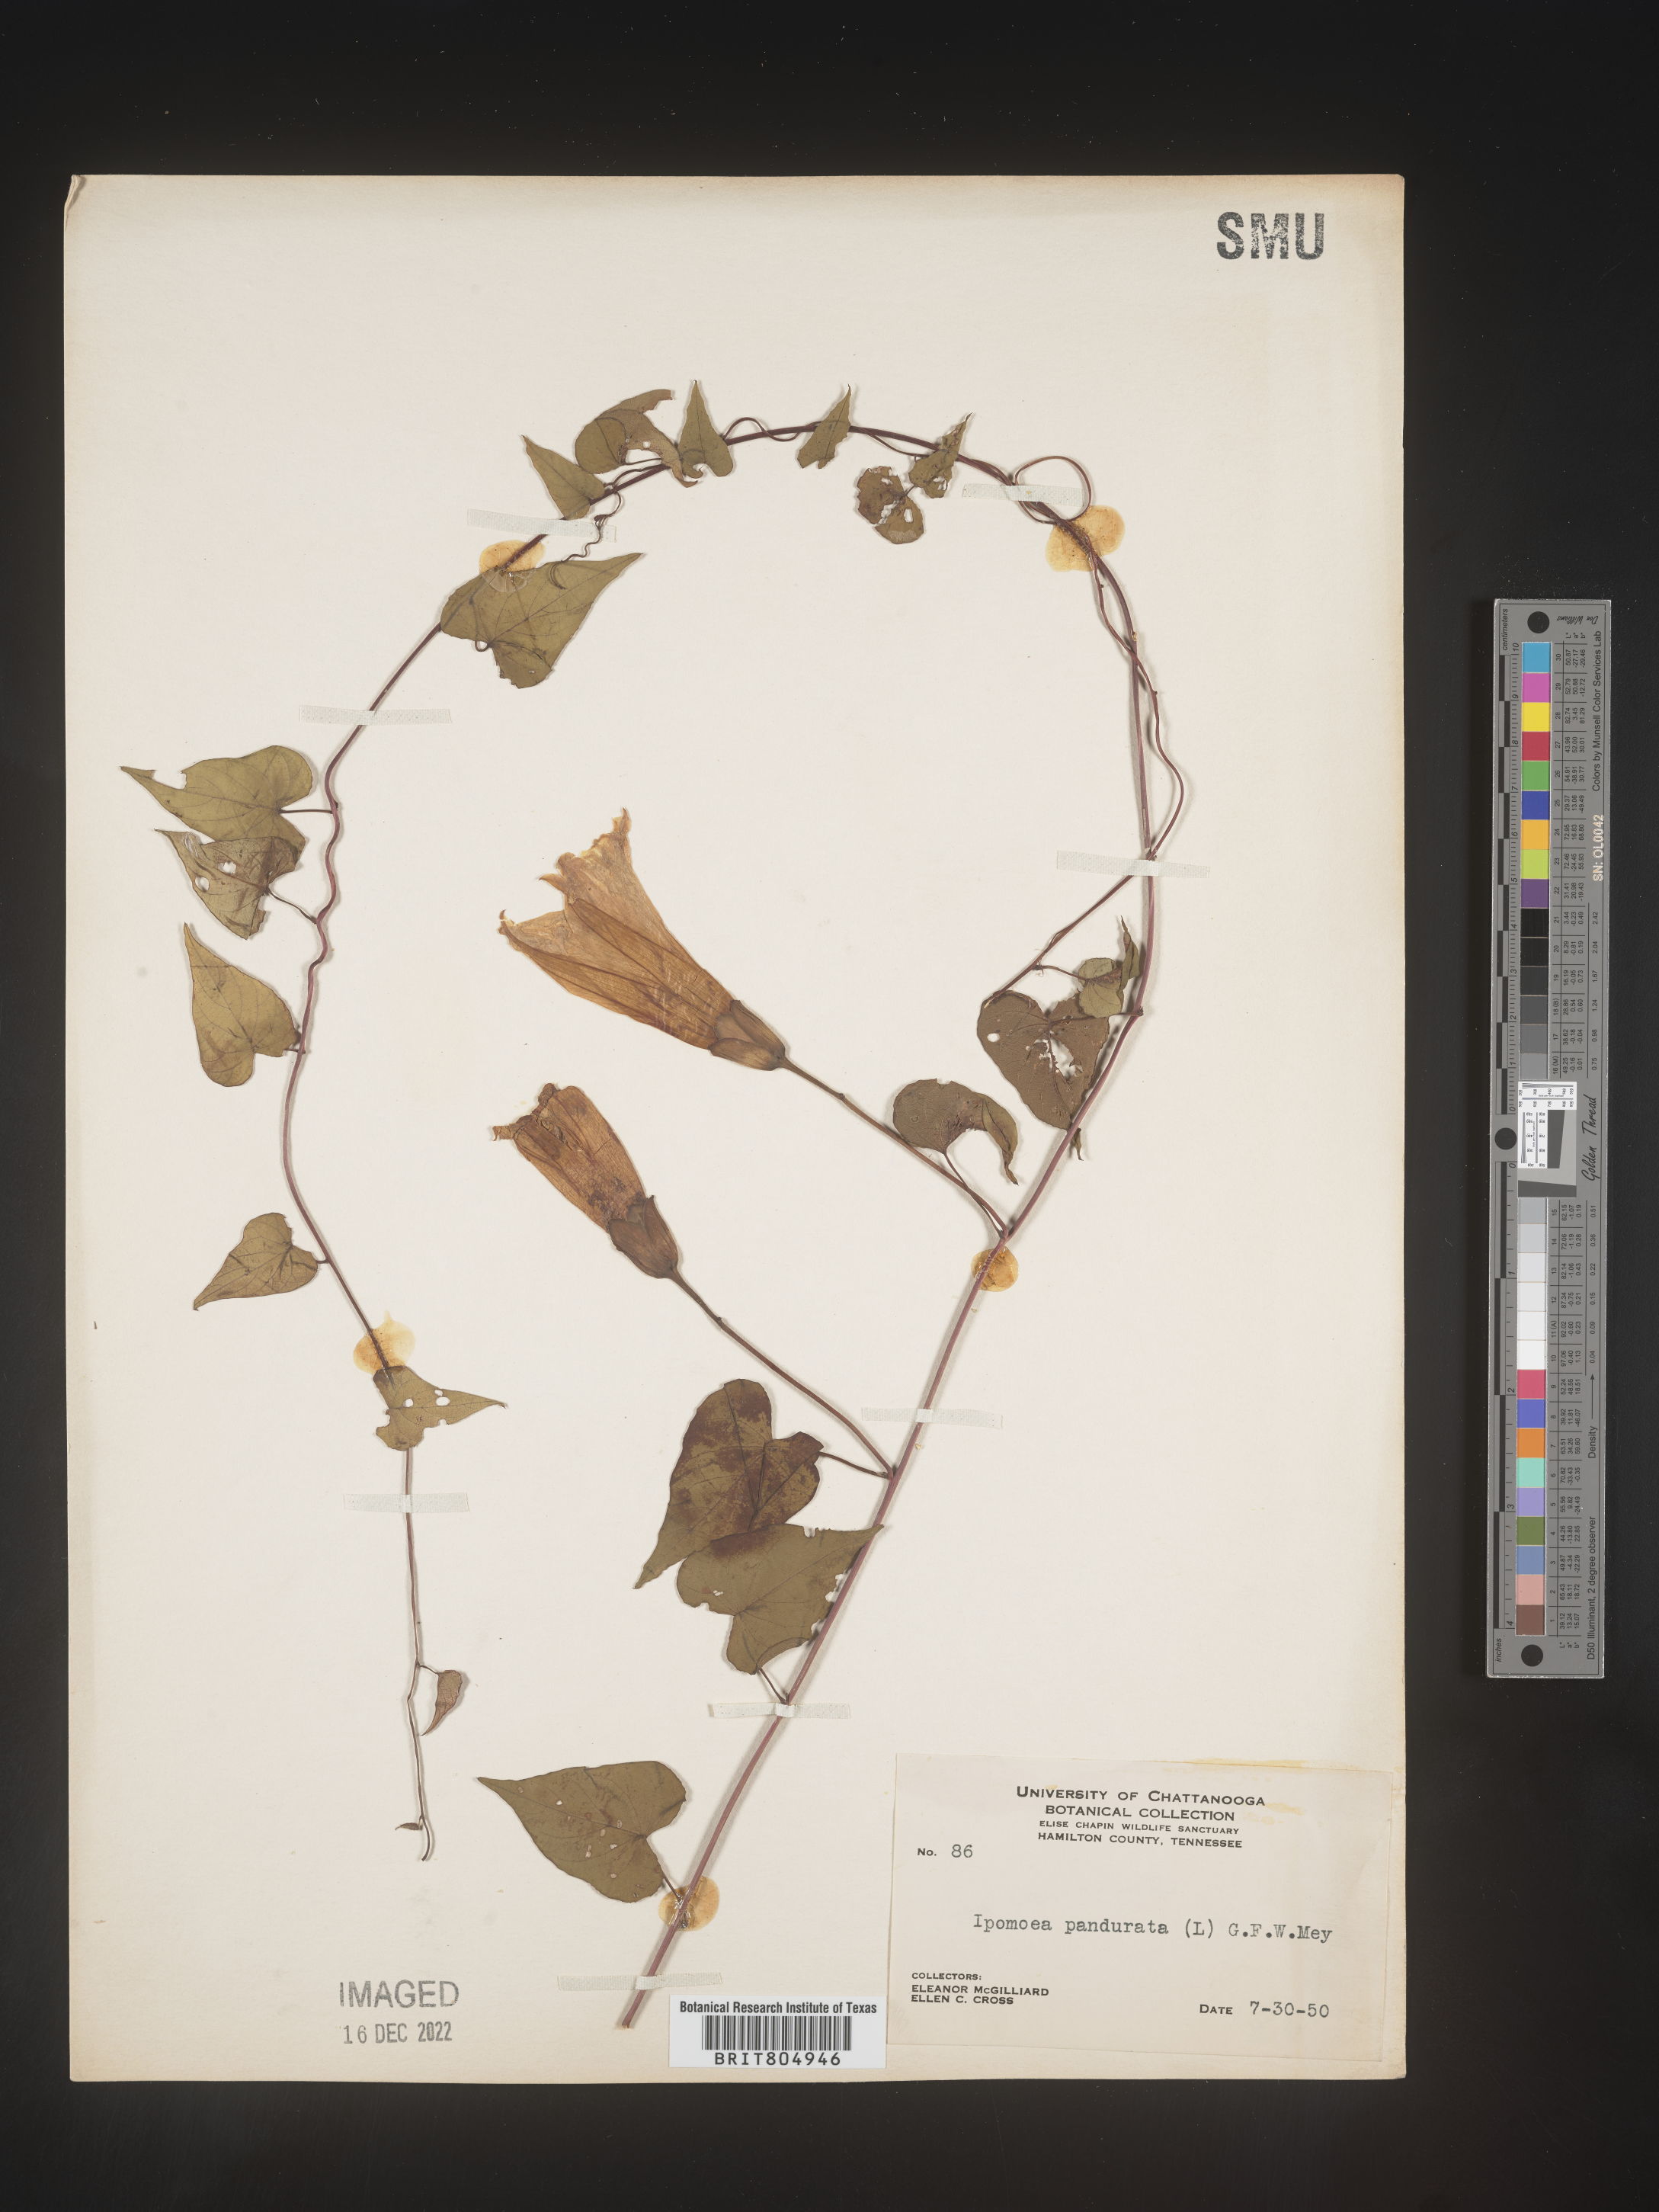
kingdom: Plantae
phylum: Tracheophyta
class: Magnoliopsida
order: Solanales
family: Convolvulaceae
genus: Ipomoea
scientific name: Ipomoea pandurata
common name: Man-of-the-earth
